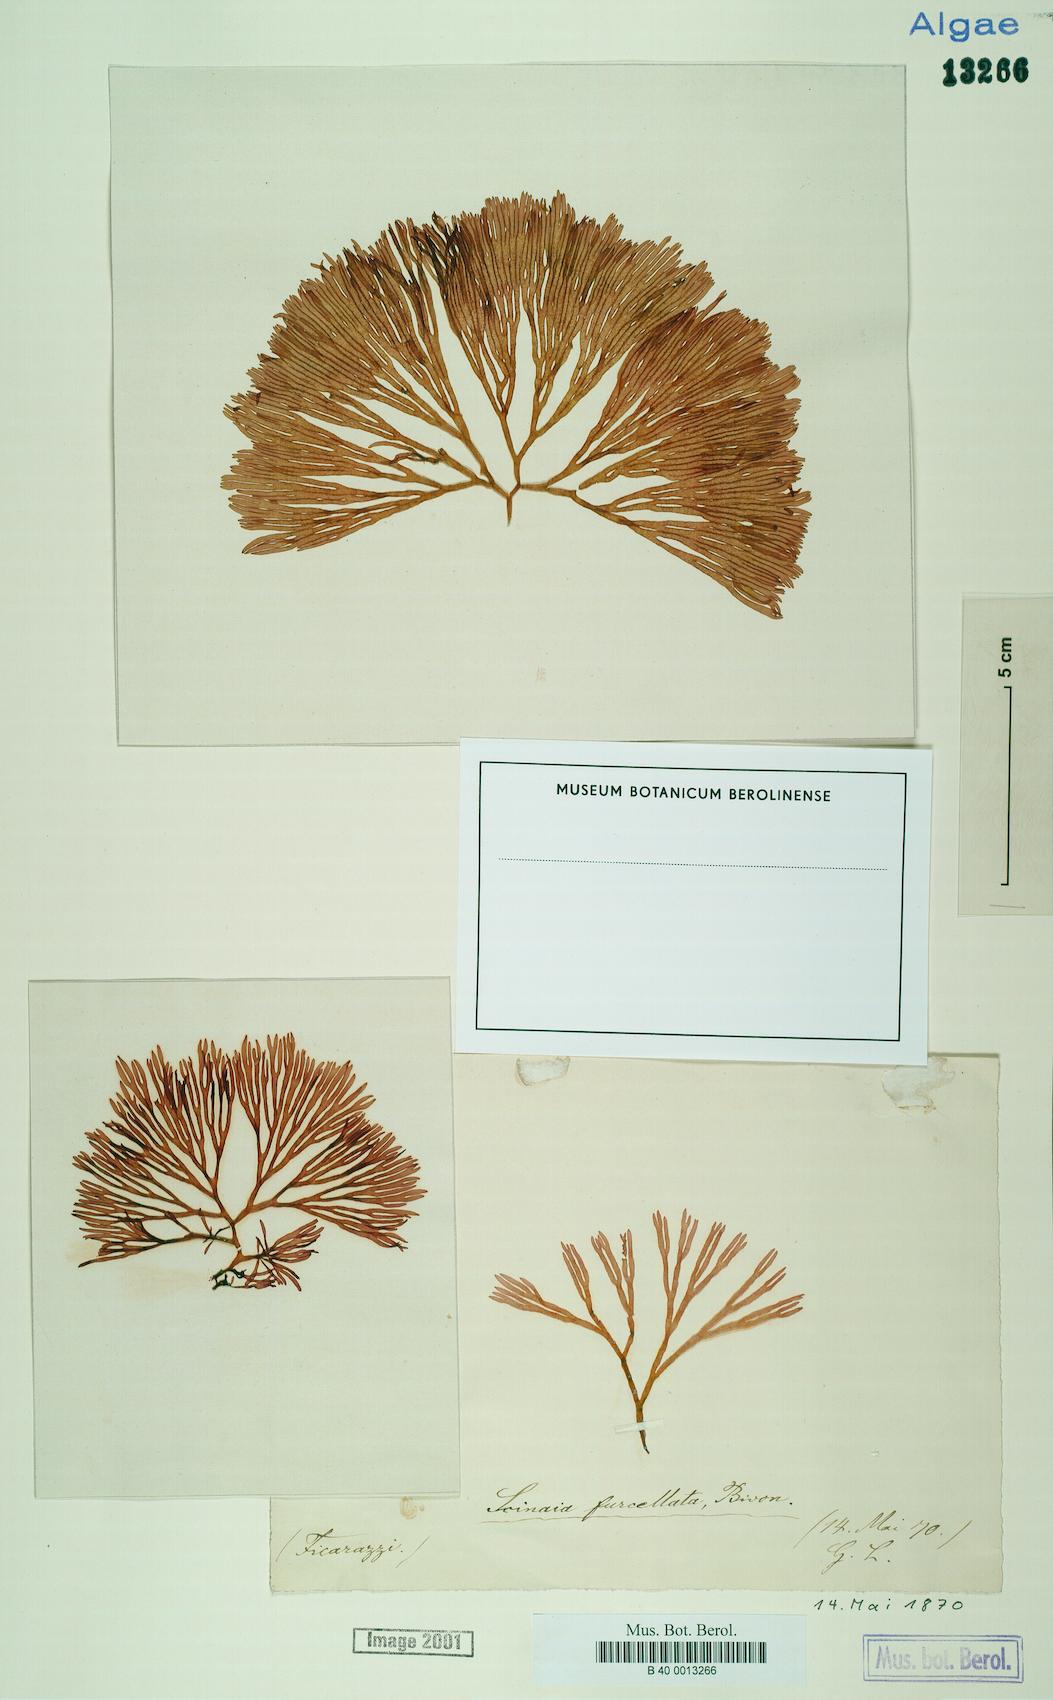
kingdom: Plantae
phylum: Rhodophyta
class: Florideophyceae
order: Nemaliales
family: Scinaiaceae
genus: Scinaia
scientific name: Scinaia furcellata
